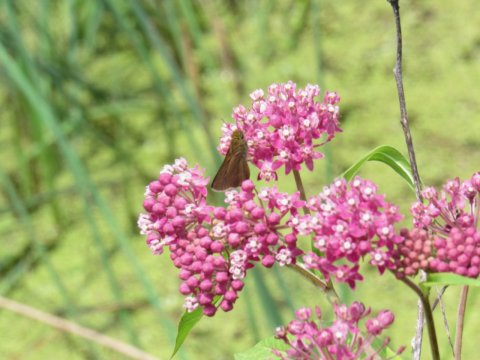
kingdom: Animalia
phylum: Arthropoda
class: Insecta
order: Lepidoptera
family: Hesperiidae
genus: Polites
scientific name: Polites egeremet
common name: Northern Broken-Dash
